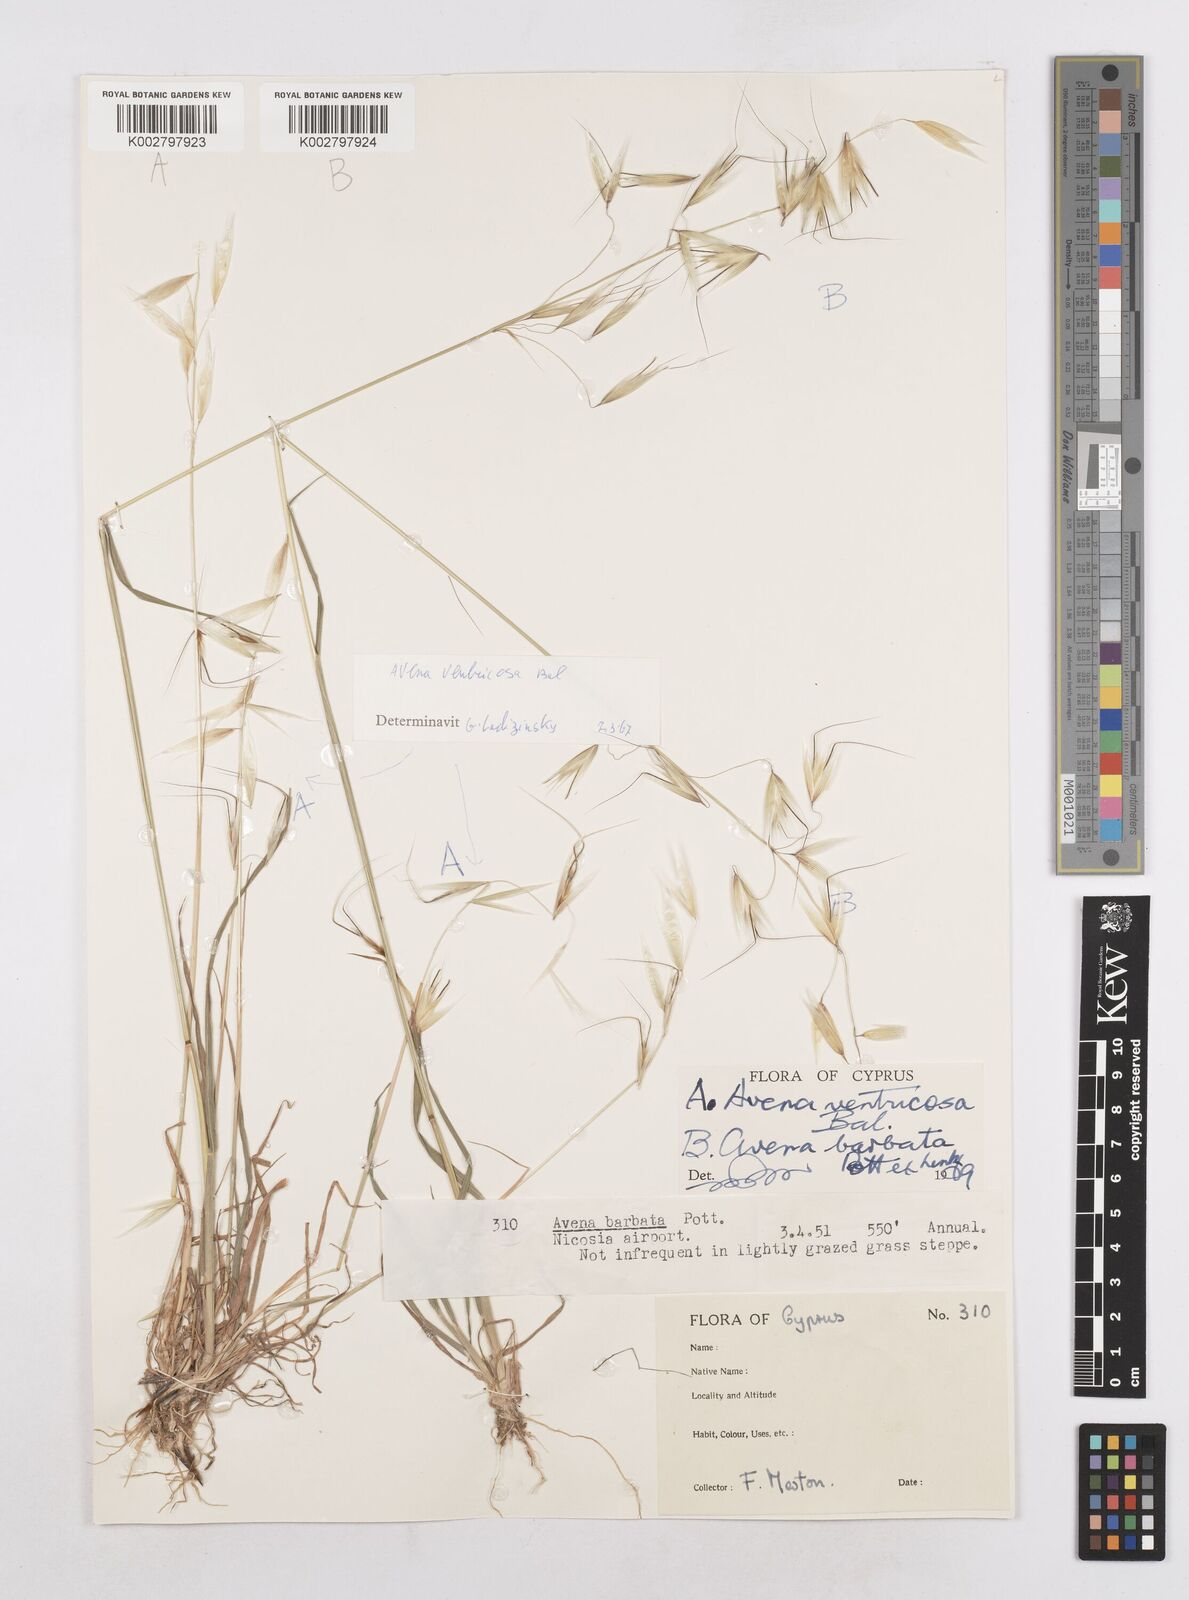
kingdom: Plantae
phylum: Tracheophyta
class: Liliopsida
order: Poales
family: Poaceae
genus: Avena
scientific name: Avena ventricosa
